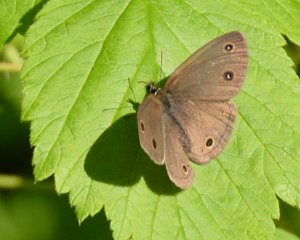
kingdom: Animalia
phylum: Arthropoda
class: Insecta
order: Lepidoptera
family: Nymphalidae
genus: Euptychia
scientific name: Euptychia cymela
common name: Little Wood Satyr
